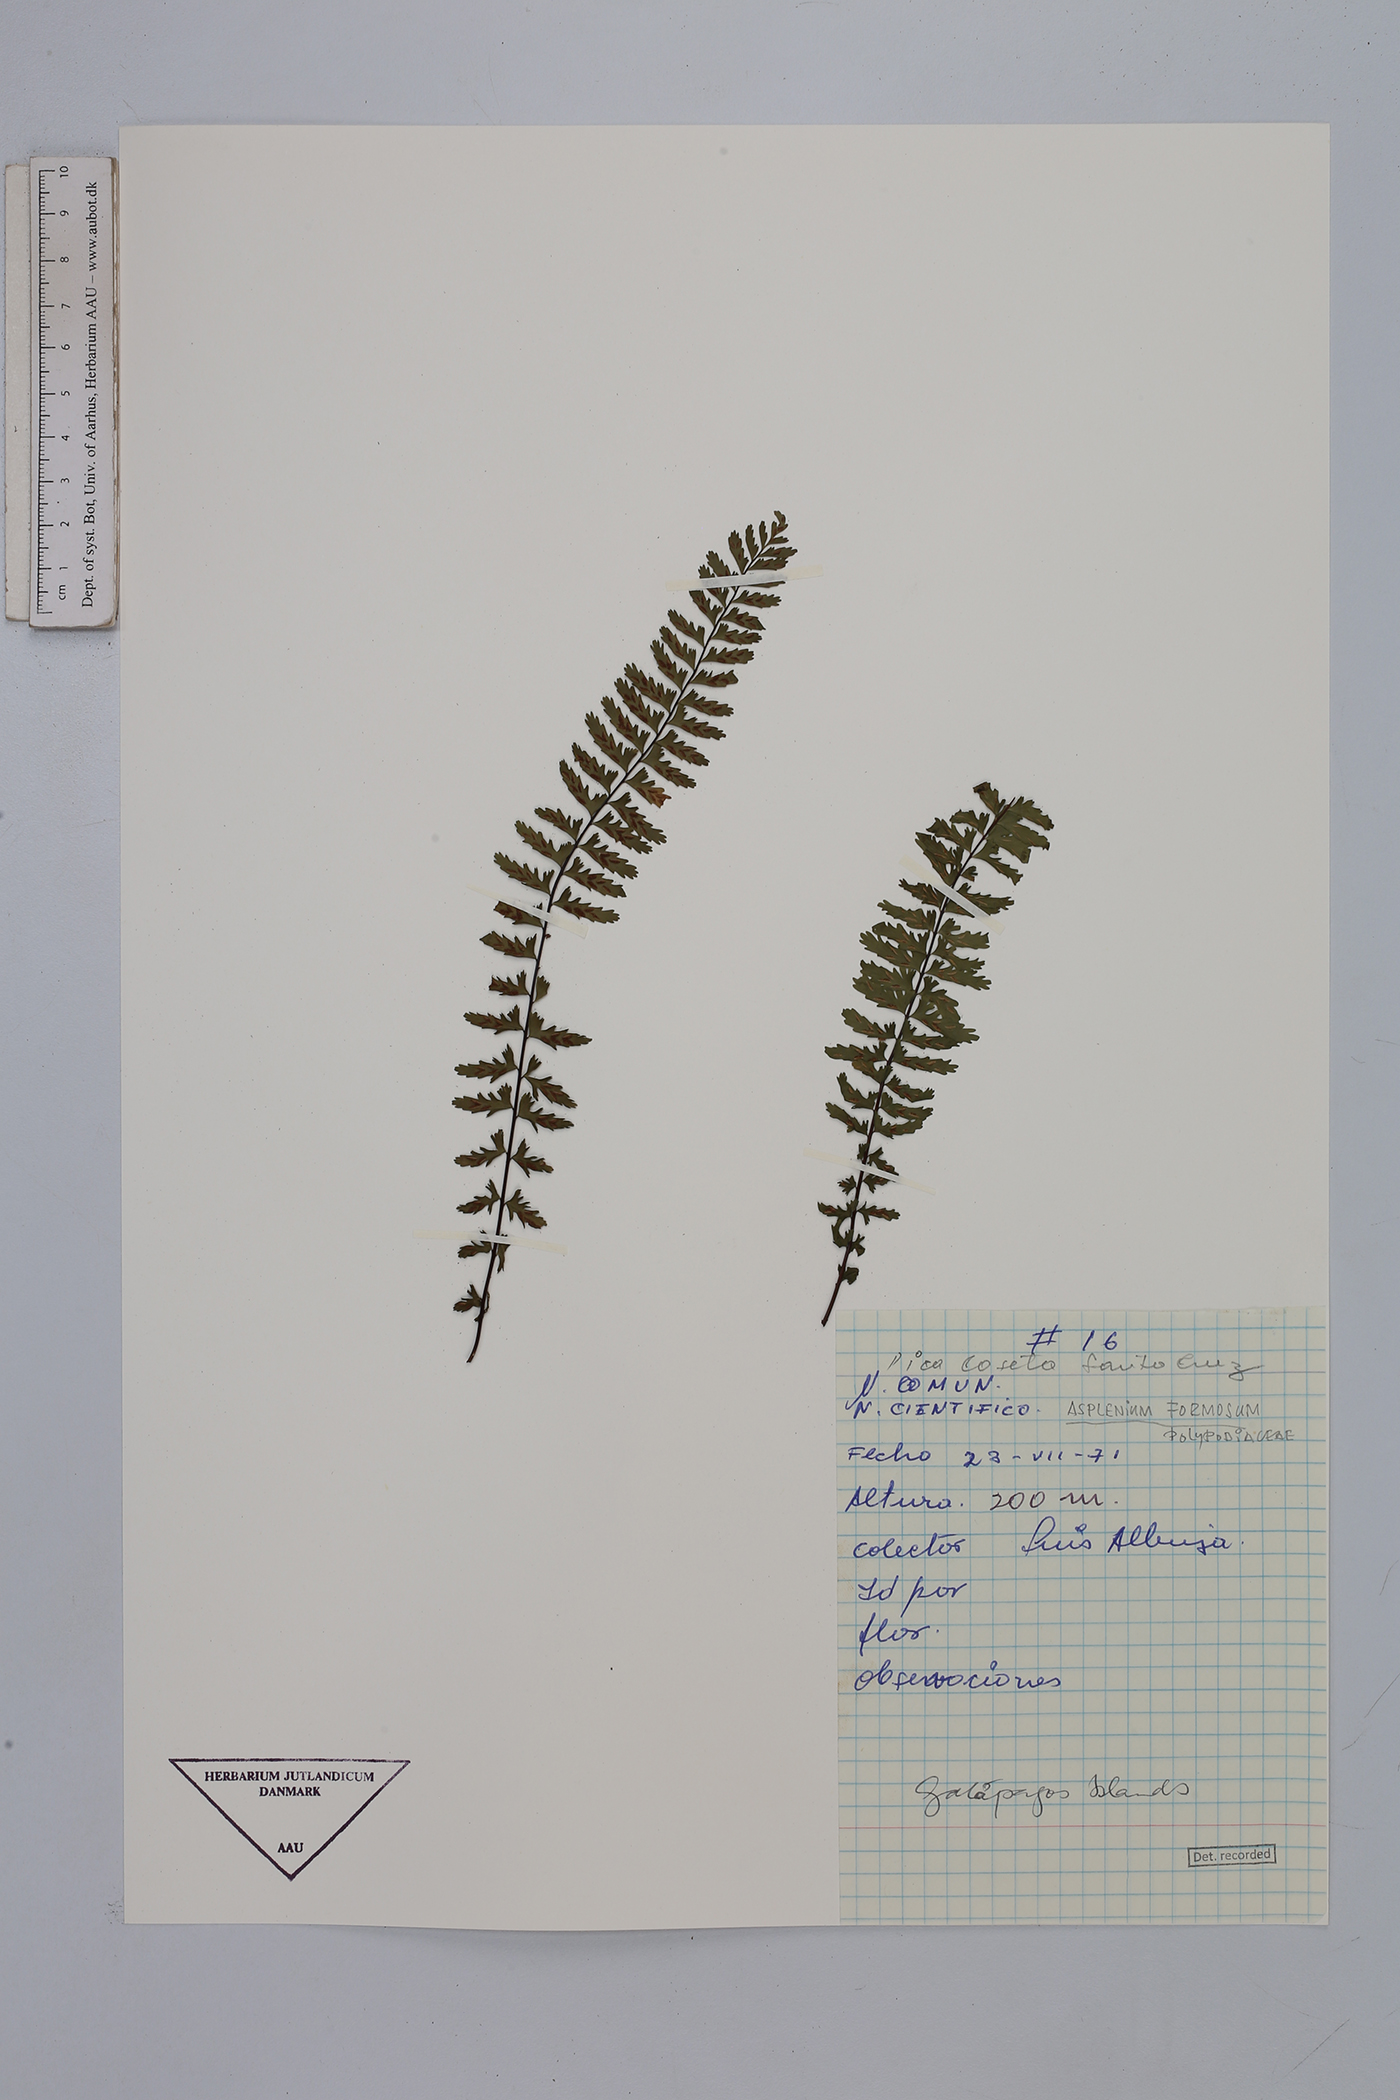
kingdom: Plantae
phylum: Tracheophyta
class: Polypodiopsida
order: Polypodiales
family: Aspleniaceae
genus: Asplenium
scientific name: Asplenium formosum
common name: Showy spleenwort
